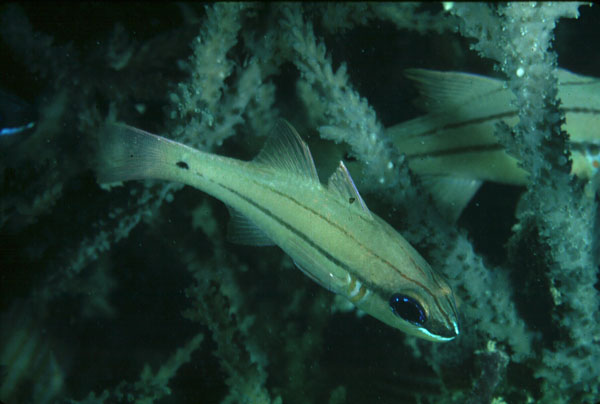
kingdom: Animalia
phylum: Chordata
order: Perciformes
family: Apogonidae
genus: Ostorhinchus
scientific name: Ostorhinchus sealei
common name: Seale's cardinalfish
